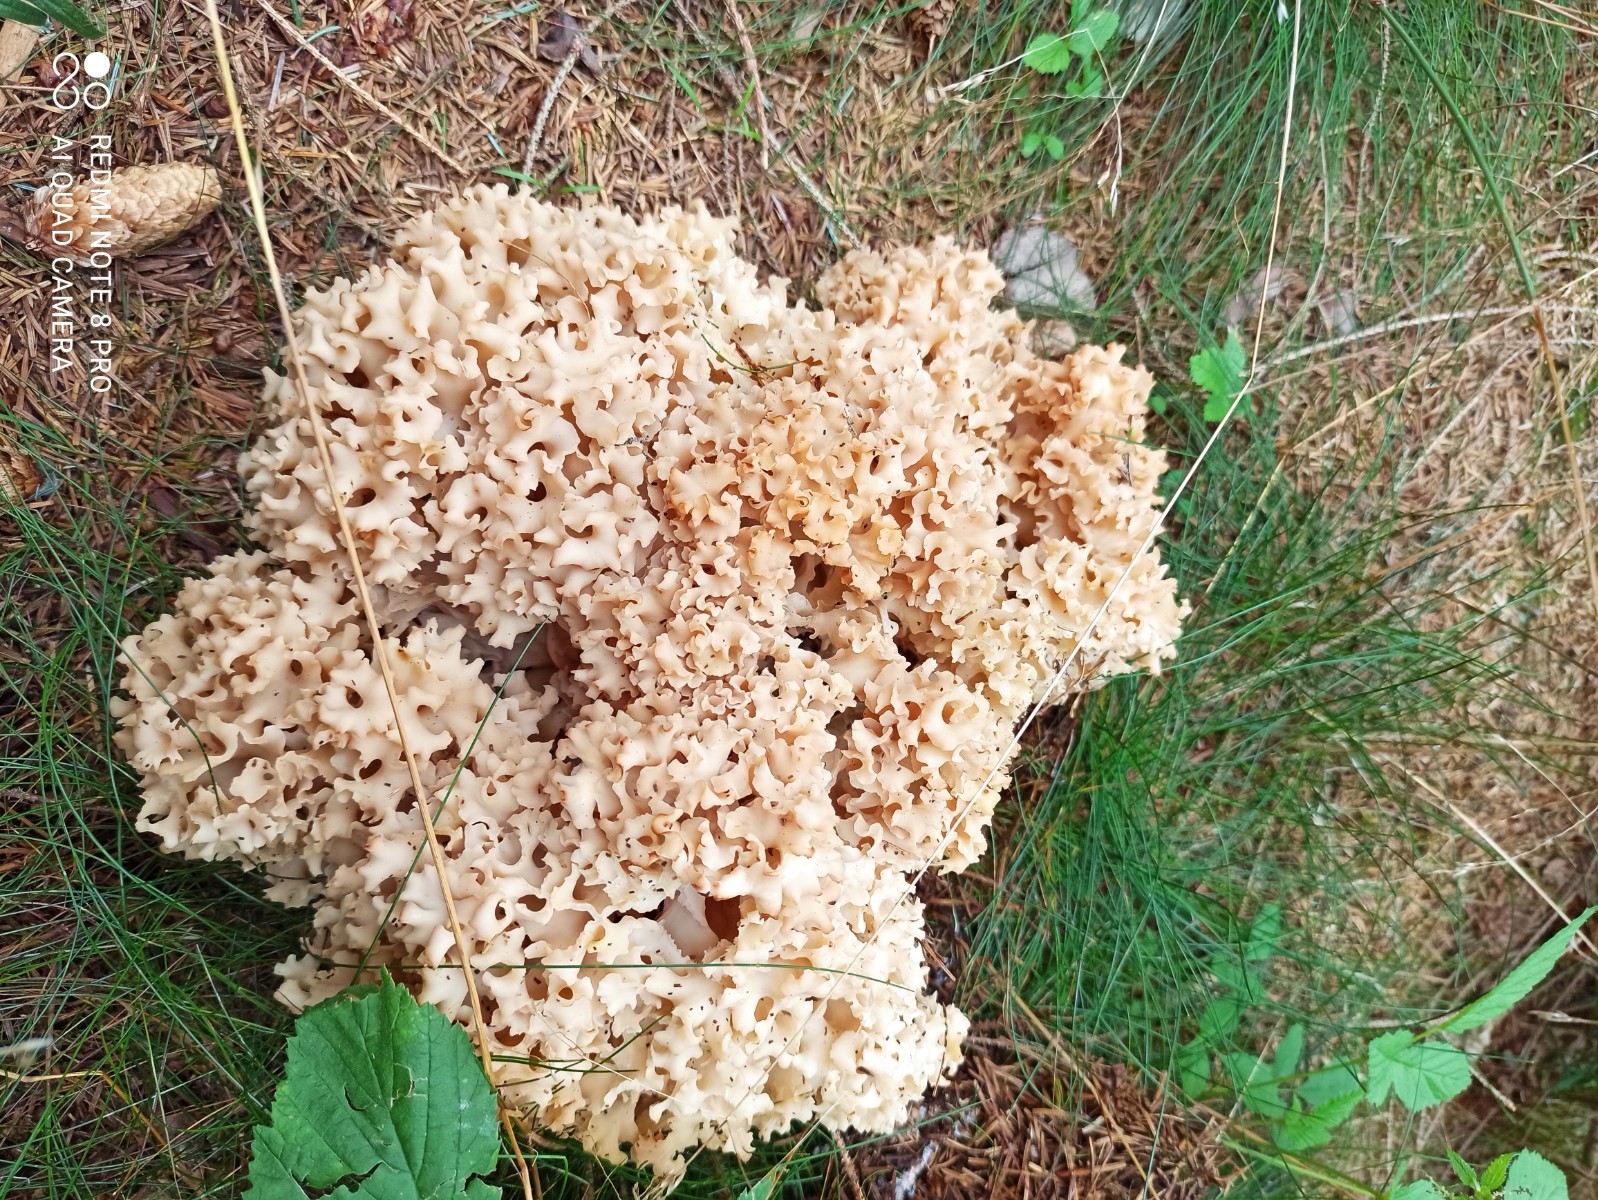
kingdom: Fungi
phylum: Basidiomycota
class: Agaricomycetes
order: Polyporales
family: Sparassidaceae
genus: Sparassis
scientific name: Sparassis crispa
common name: kruset blomkålssvamp
